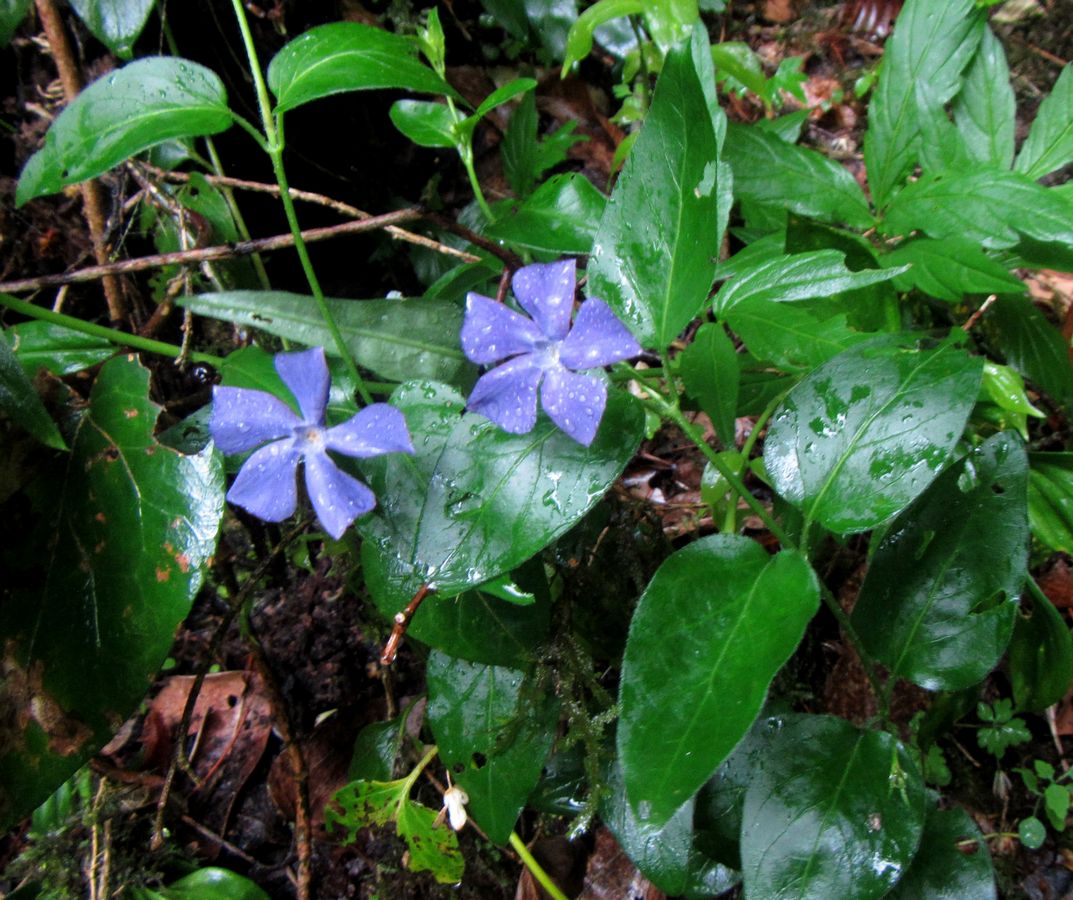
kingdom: Plantae
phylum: Tracheophyta
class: Magnoliopsida
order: Gentianales
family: Apocynaceae
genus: Vinca
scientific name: Vinca minor
